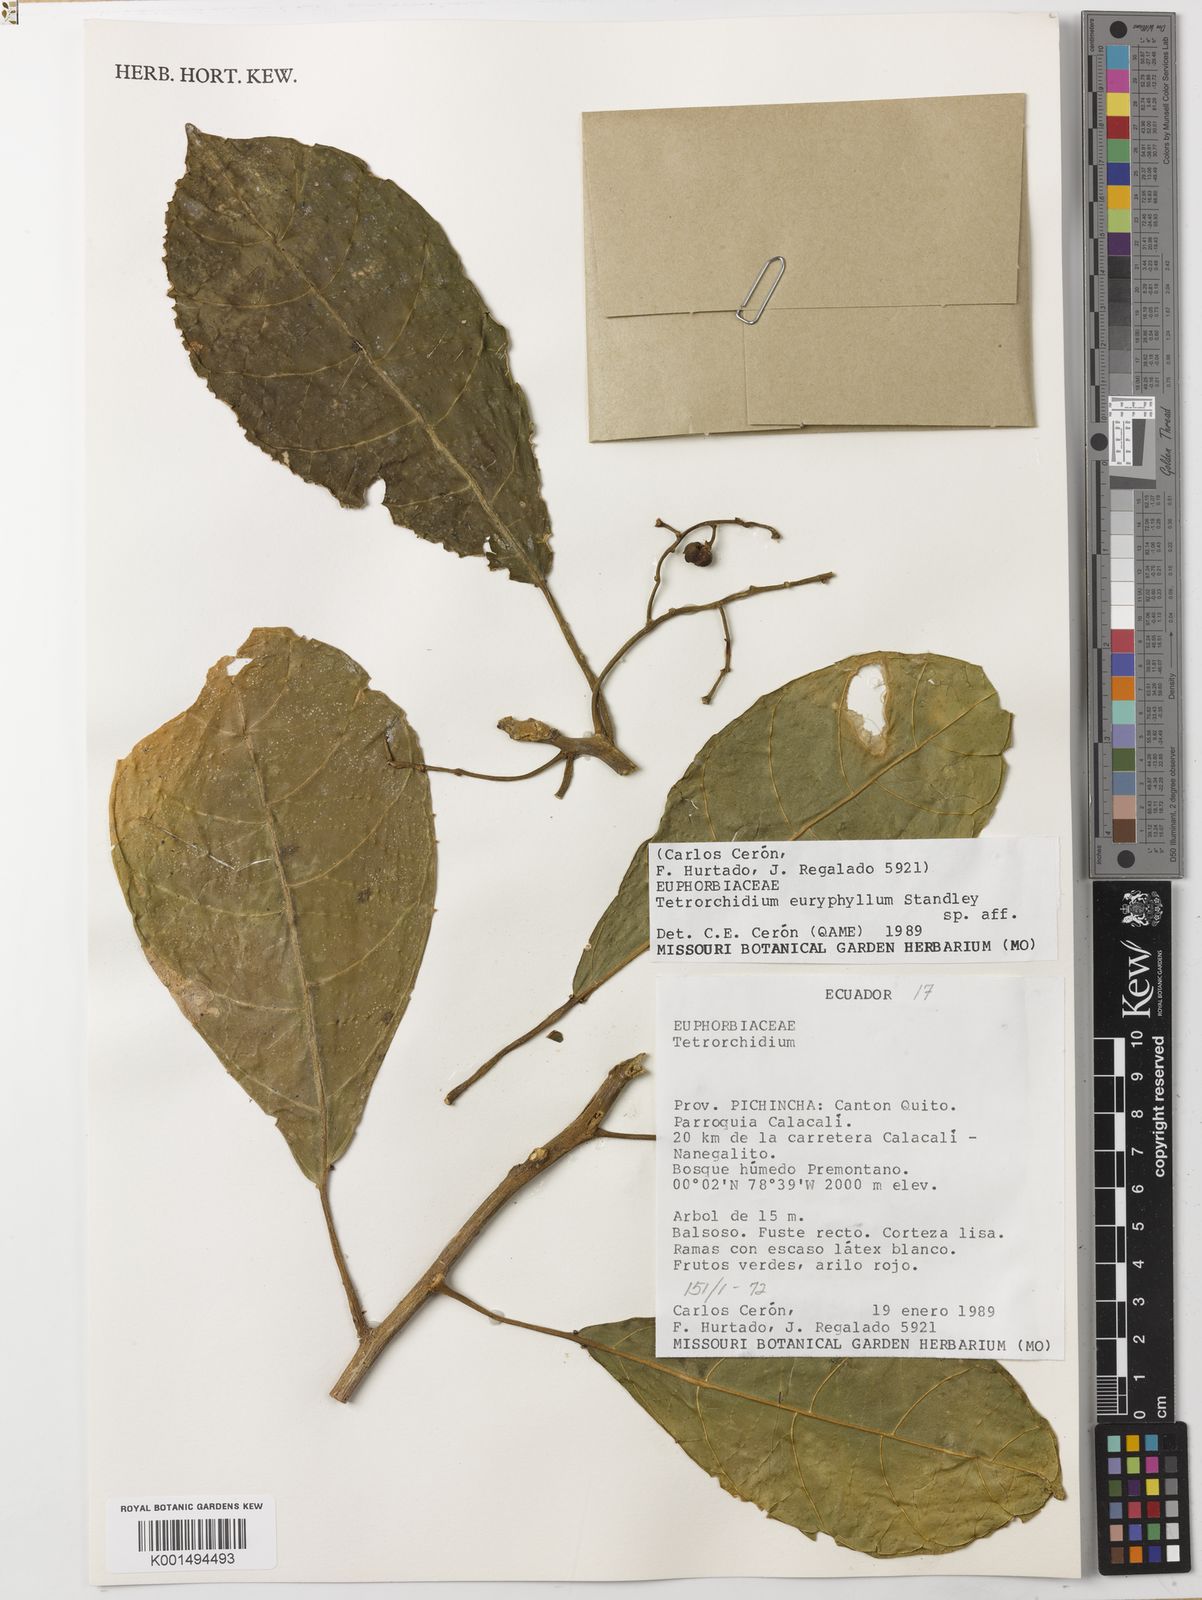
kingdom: Plantae
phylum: Tracheophyta
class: Magnoliopsida
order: Malpighiales
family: Euphorbiaceae
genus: Tetrorchidium
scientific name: Tetrorchidium euryphyllum
